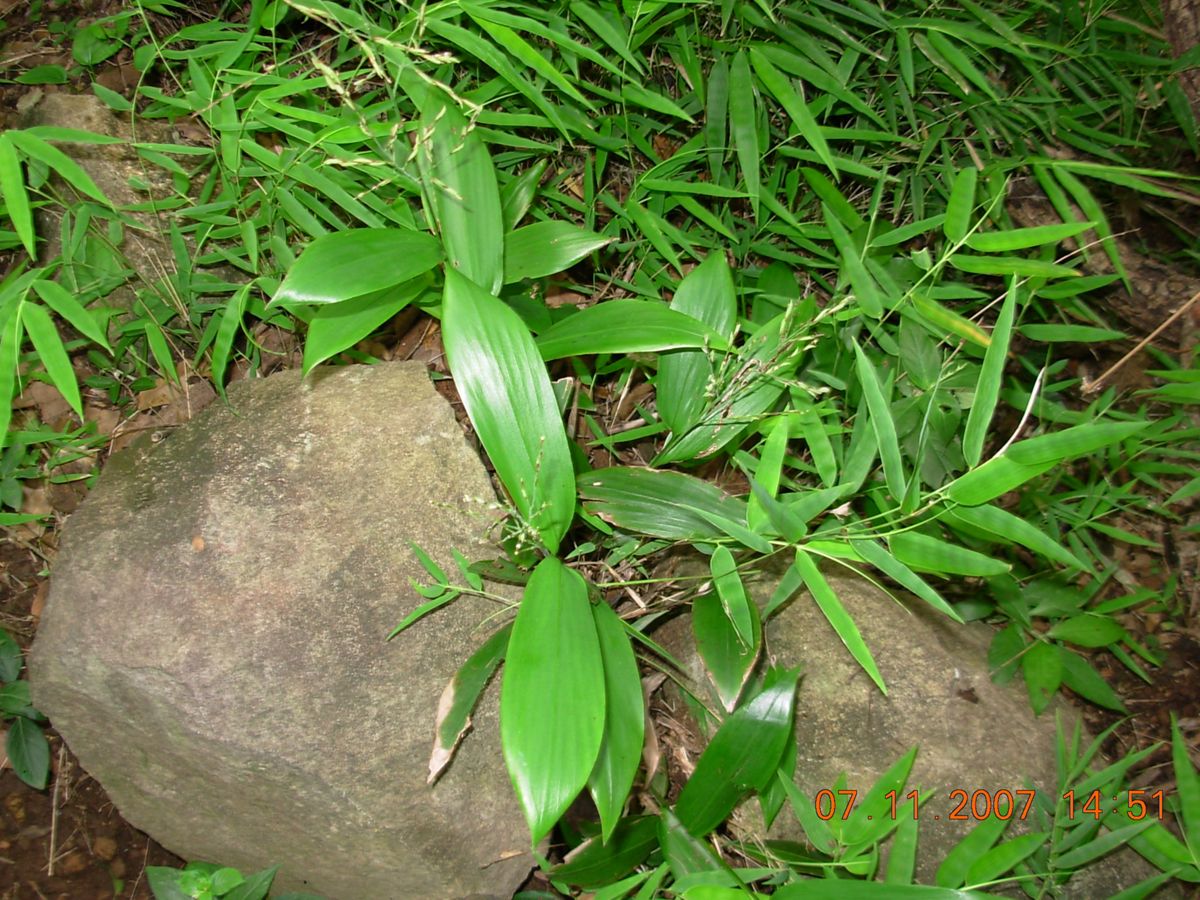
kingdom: Plantae
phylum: Tracheophyta
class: Liliopsida
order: Poales
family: Poaceae
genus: Pharus
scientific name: Pharus lappulaceus
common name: Creeping leafstalk grass
